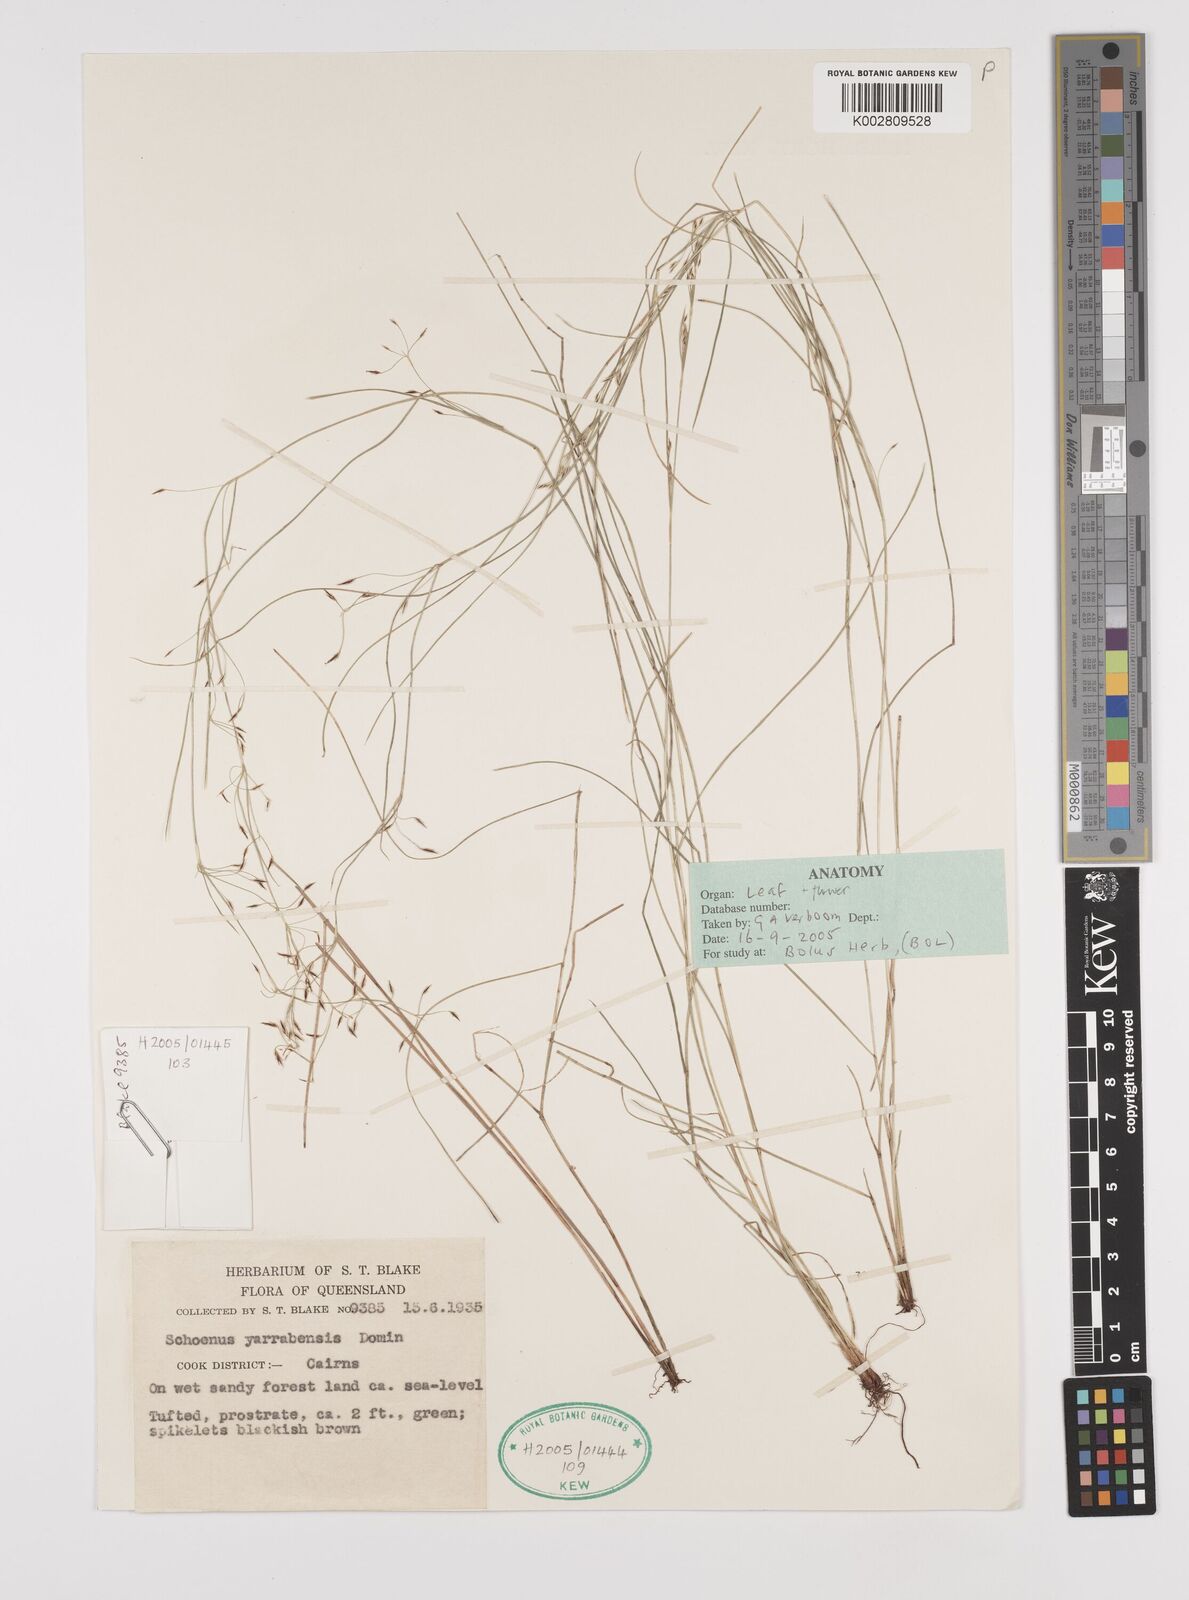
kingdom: Plantae
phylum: Tracheophyta
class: Liliopsida
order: Poales
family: Cyperaceae
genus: Schoenus
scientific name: Schoenus yarrabensis
